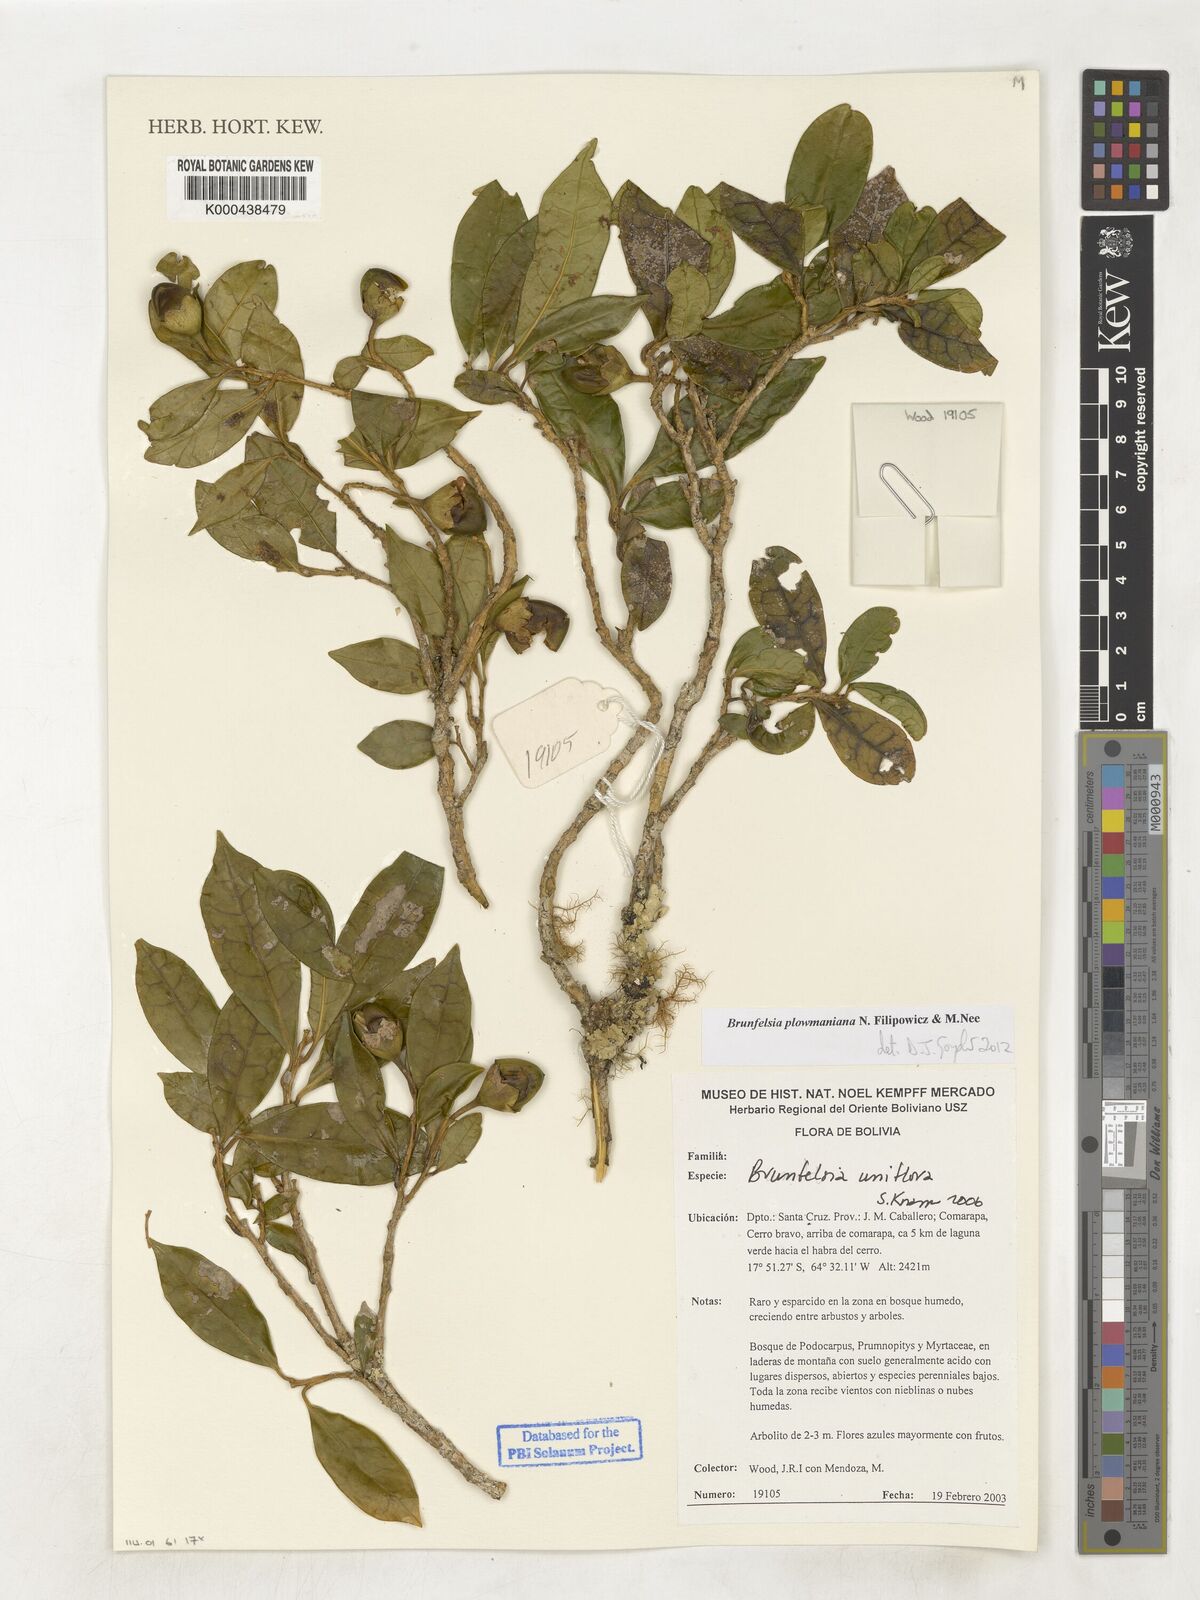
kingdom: Plantae
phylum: Tracheophyta
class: Magnoliopsida
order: Solanales
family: Solanaceae
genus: Brunfelsia
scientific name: Brunfelsia uniflora
